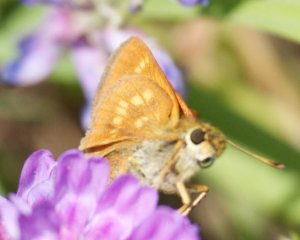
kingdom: Animalia
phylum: Arthropoda
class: Insecta
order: Lepidoptera
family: Hesperiidae
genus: Polites
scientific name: Polites
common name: Long Dash Skipper
